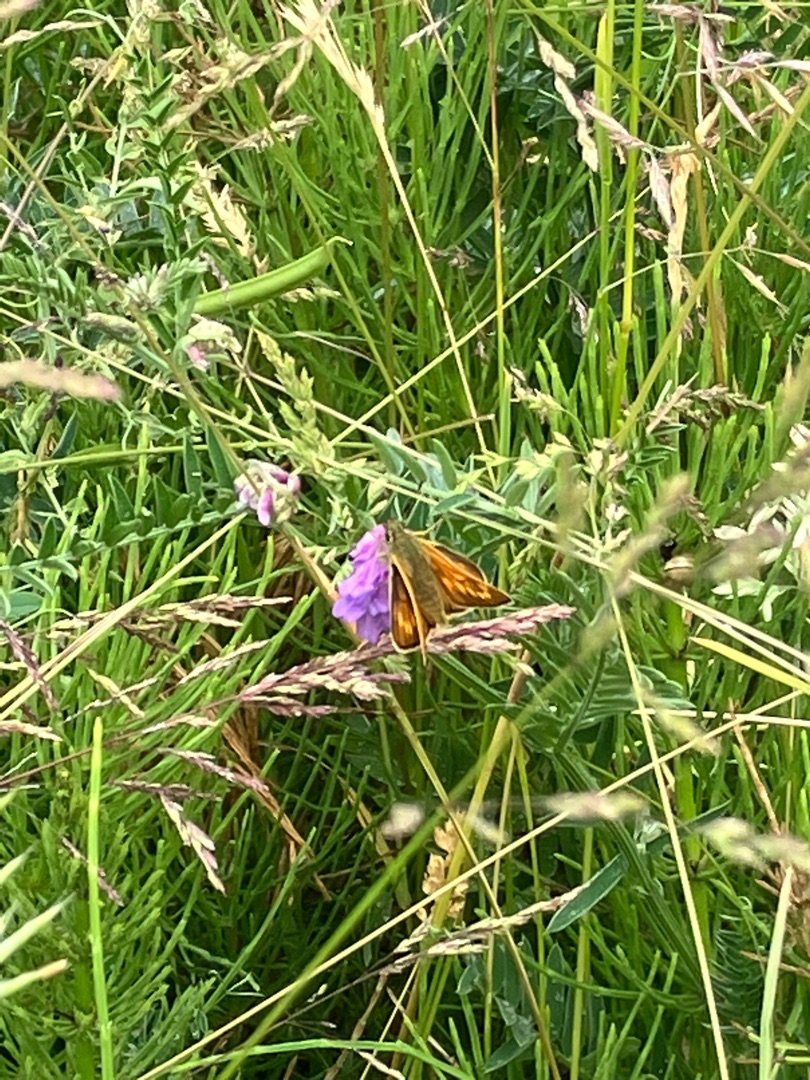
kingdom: Animalia
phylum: Arthropoda
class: Insecta
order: Lepidoptera
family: Hesperiidae
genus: Ochlodes
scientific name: Ochlodes venata
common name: Stor bredpande
